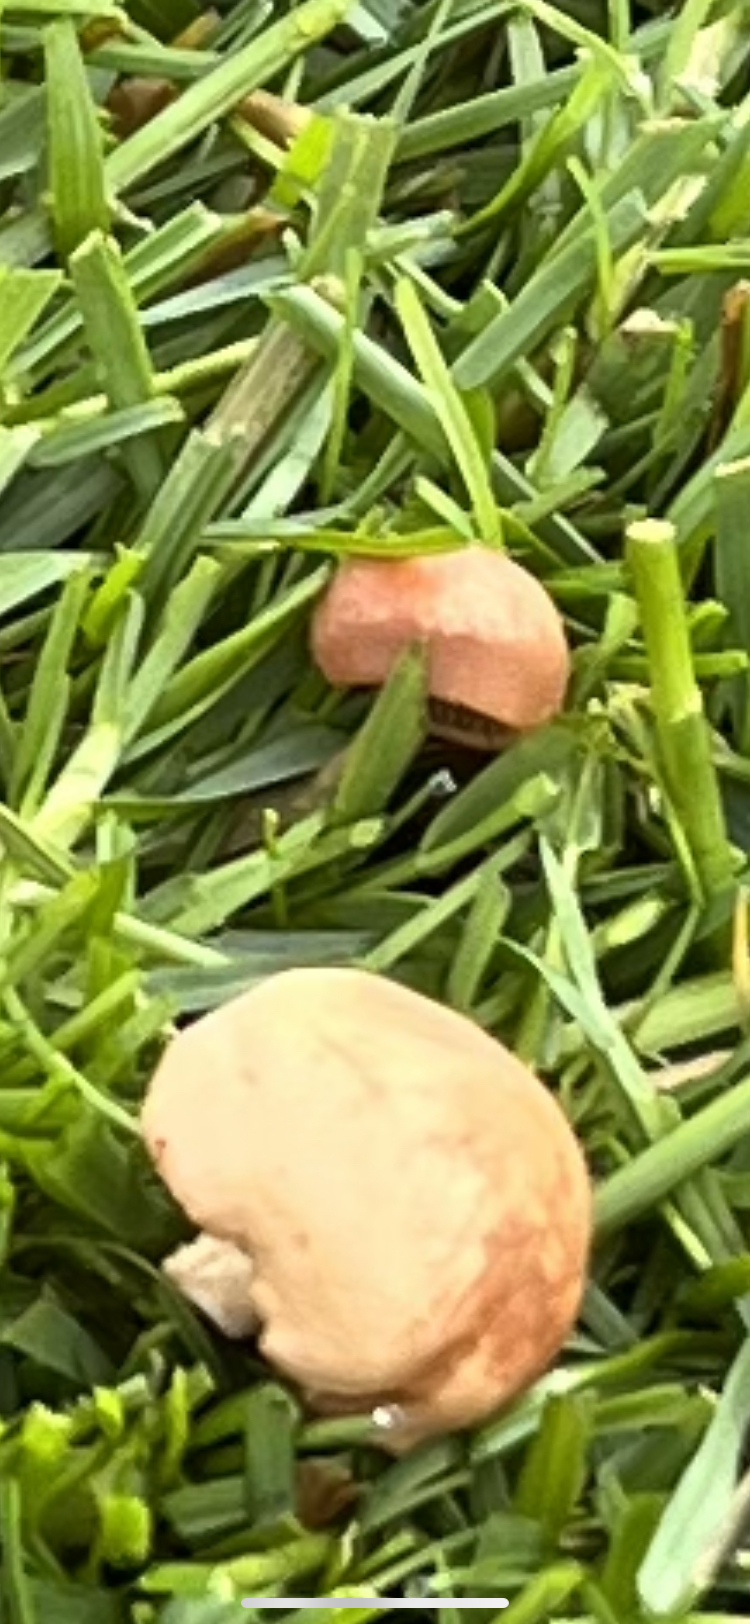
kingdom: Fungi
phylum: Basidiomycota
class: Agaricomycetes
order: Agaricales
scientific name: Agaricales
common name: champignonordenen
